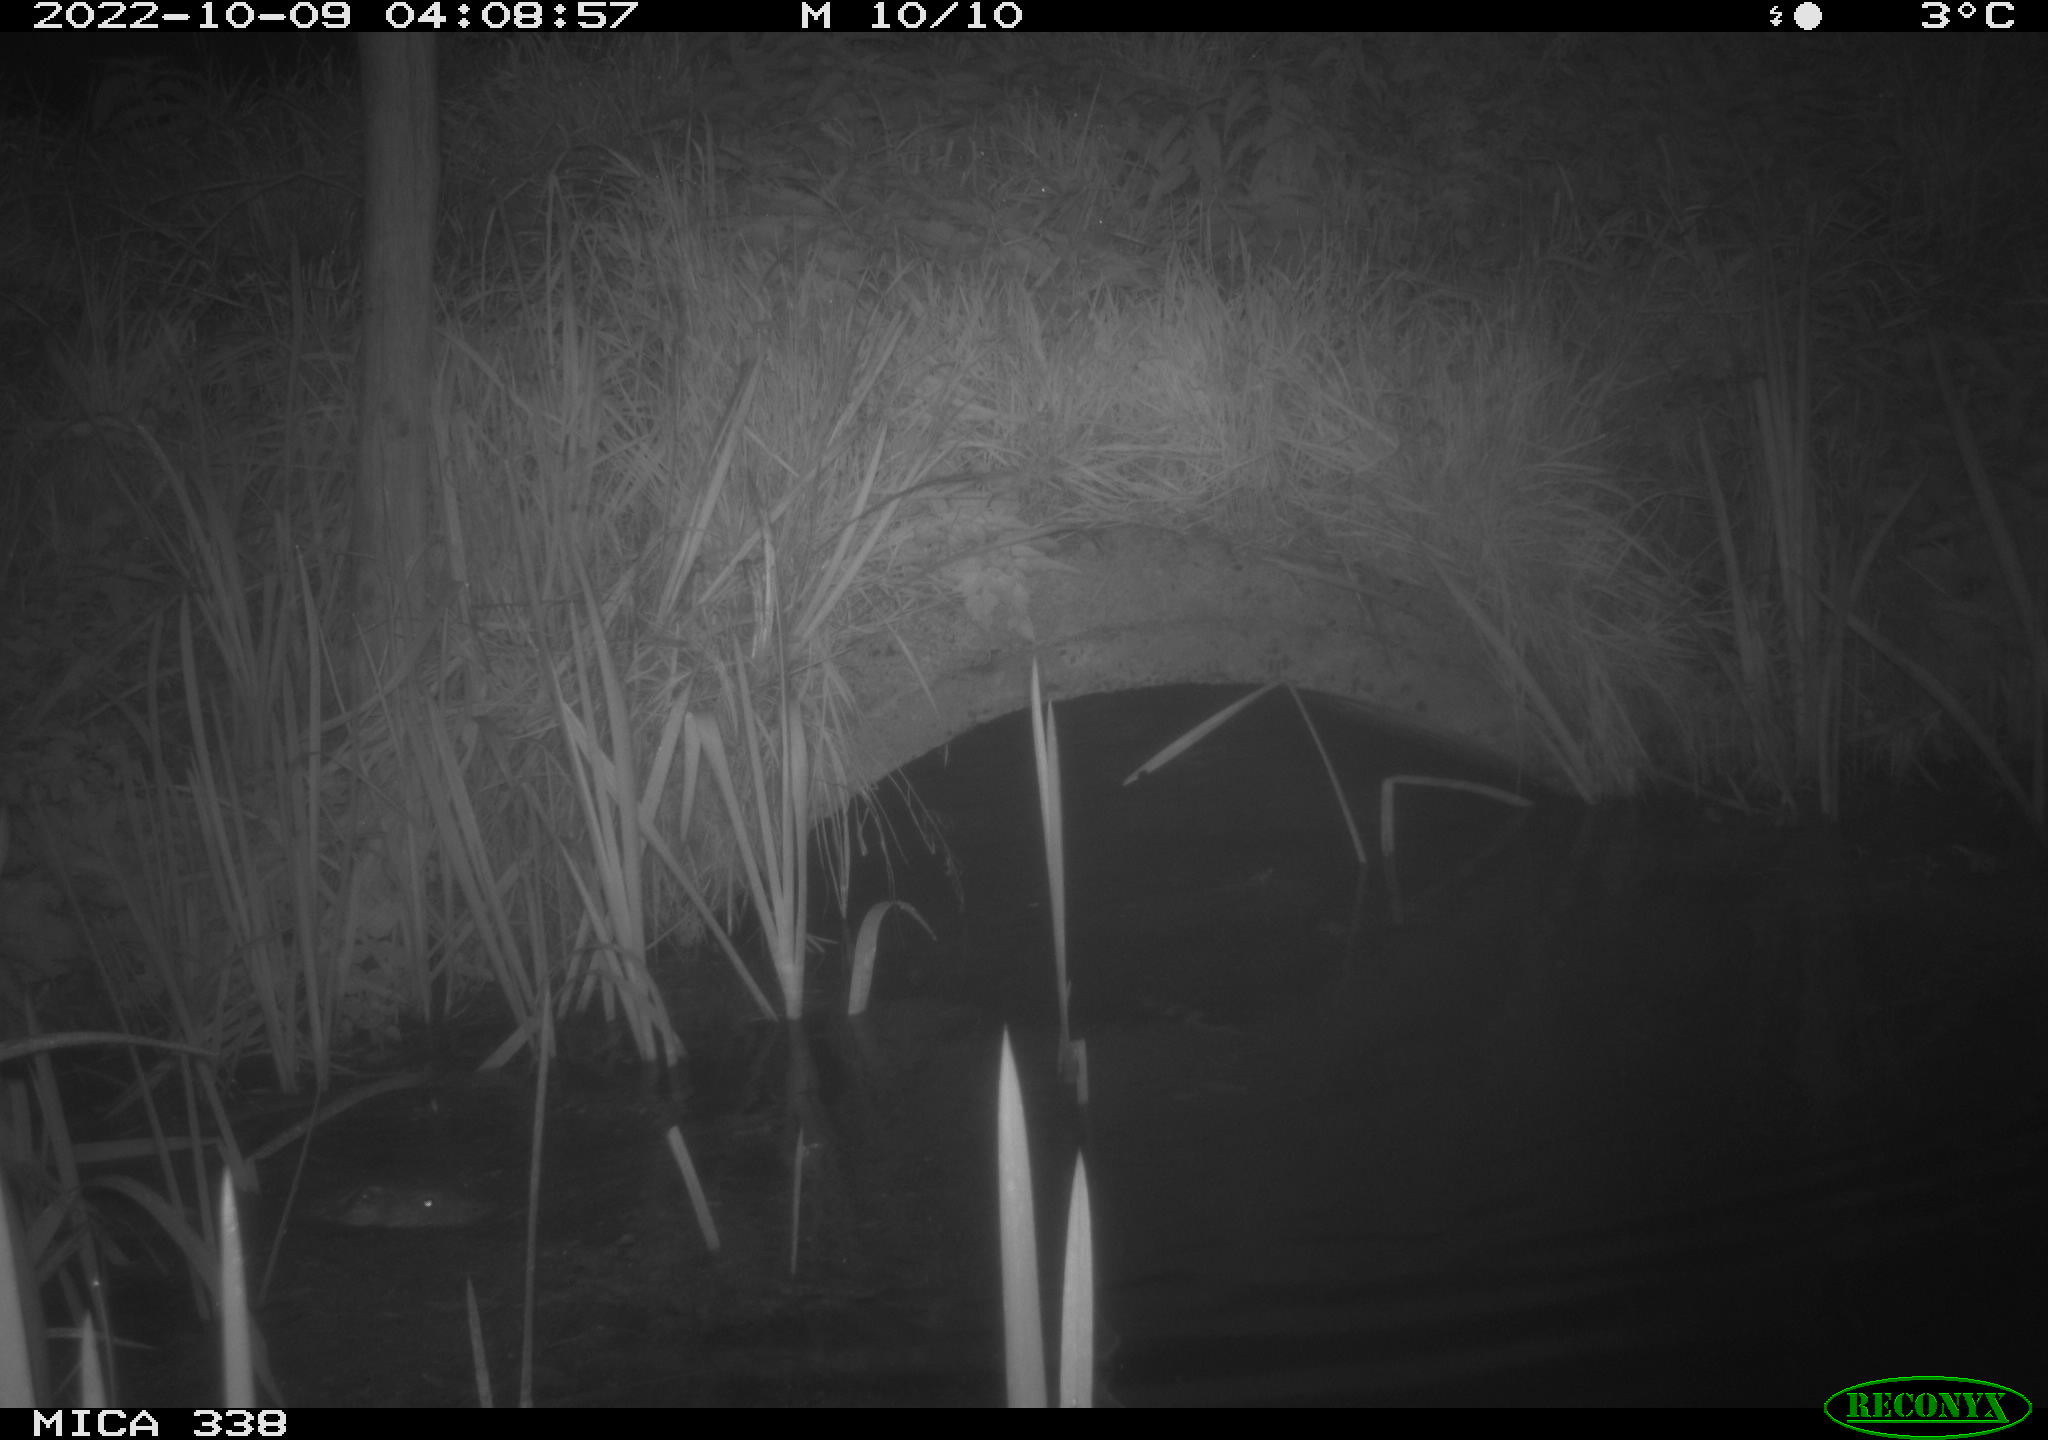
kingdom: Animalia
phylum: Chordata
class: Mammalia
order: Carnivora
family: Mustelidae
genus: Lutra
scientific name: Lutra lutra
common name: European otter
